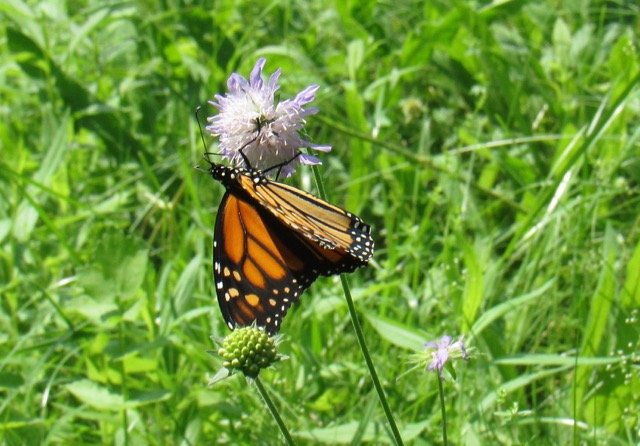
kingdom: Animalia
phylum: Arthropoda
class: Insecta
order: Lepidoptera
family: Nymphalidae
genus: Danaus
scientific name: Danaus plexippus
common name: Monarch
